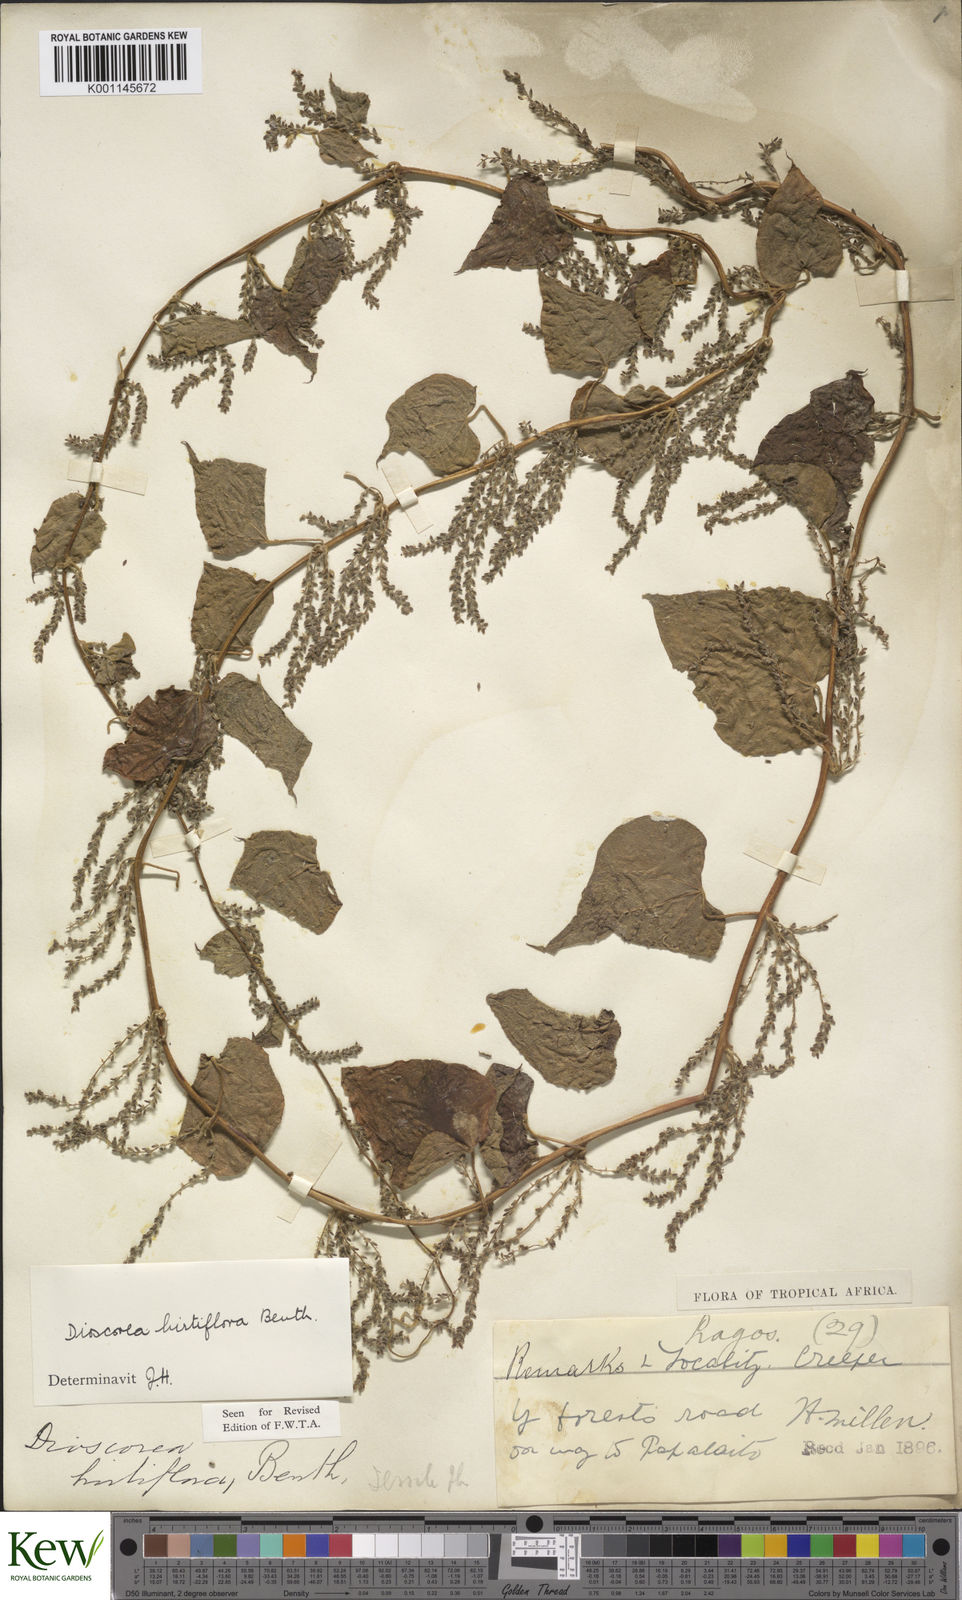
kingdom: Plantae
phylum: Tracheophyta
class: Liliopsida
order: Dioscoreales
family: Dioscoreaceae
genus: Dioscorea
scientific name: Dioscorea hirtiflora
